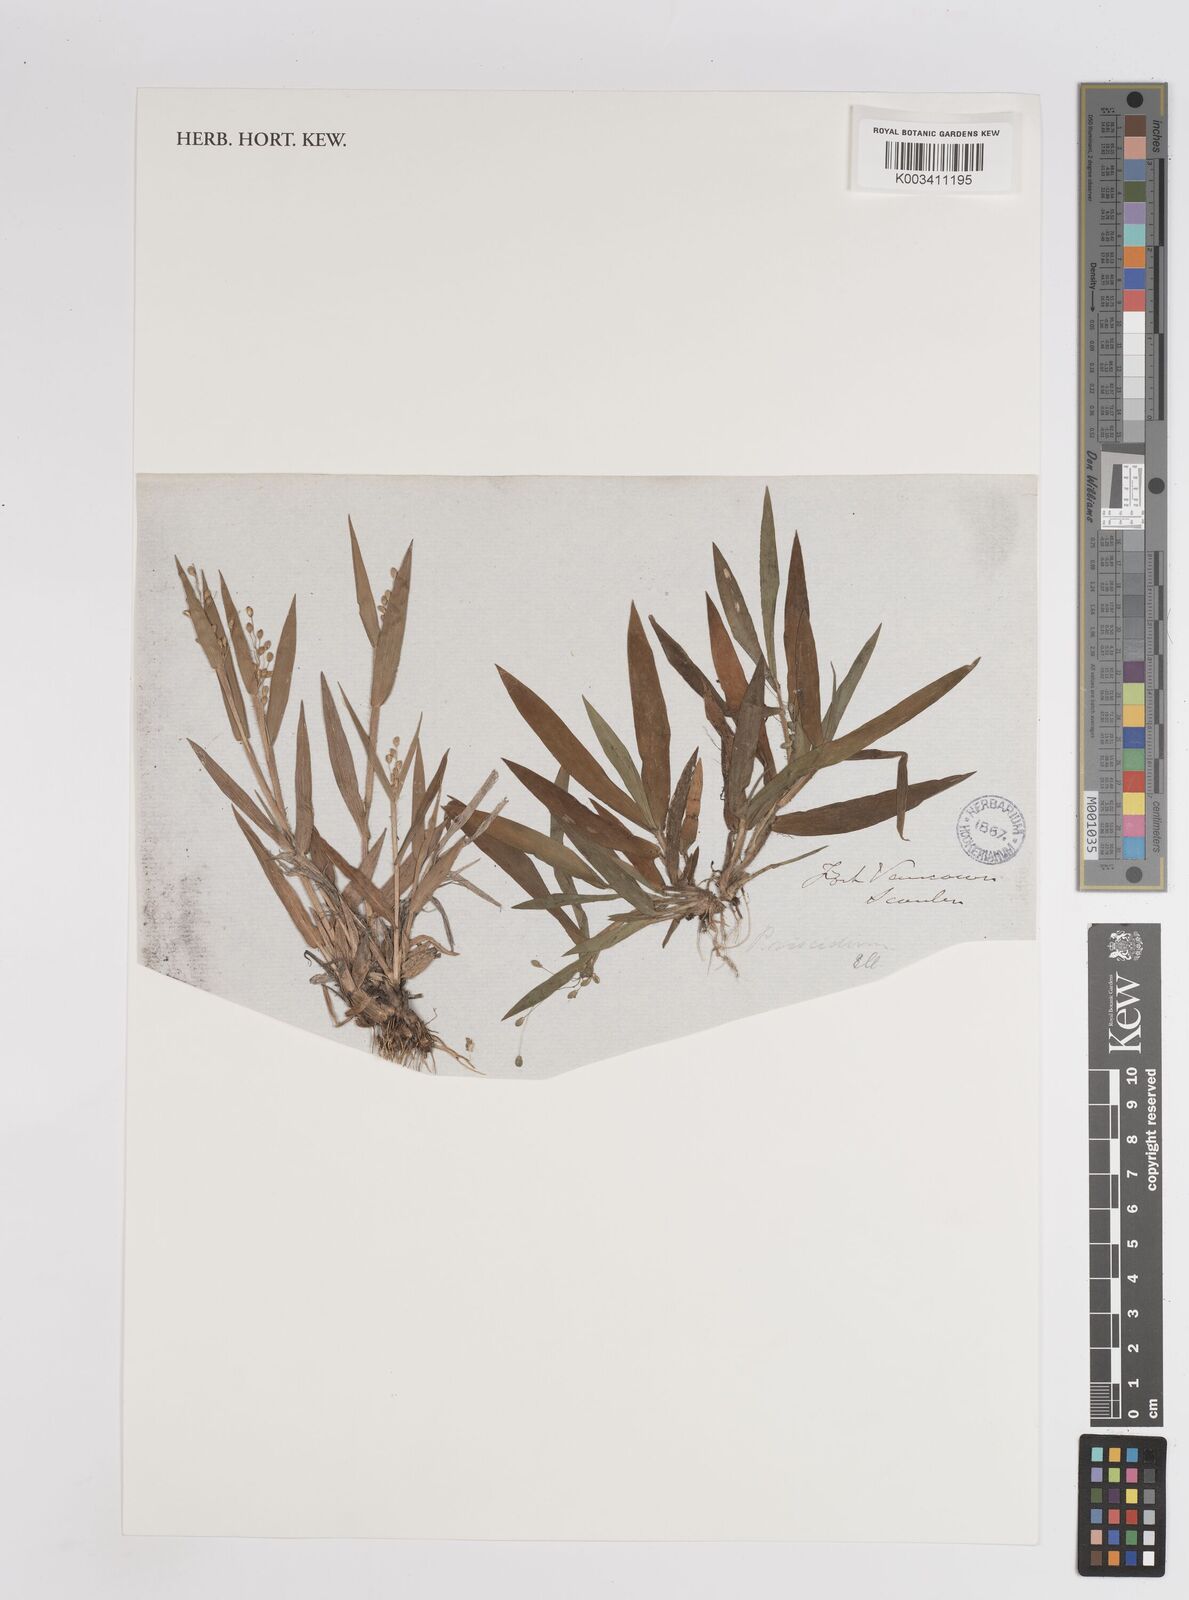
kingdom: Plantae
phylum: Tracheophyta
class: Liliopsida
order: Poales
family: Poaceae
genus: Dichanthelium
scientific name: Dichanthelium oligosanthes
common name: Few-anther obscuregrass
